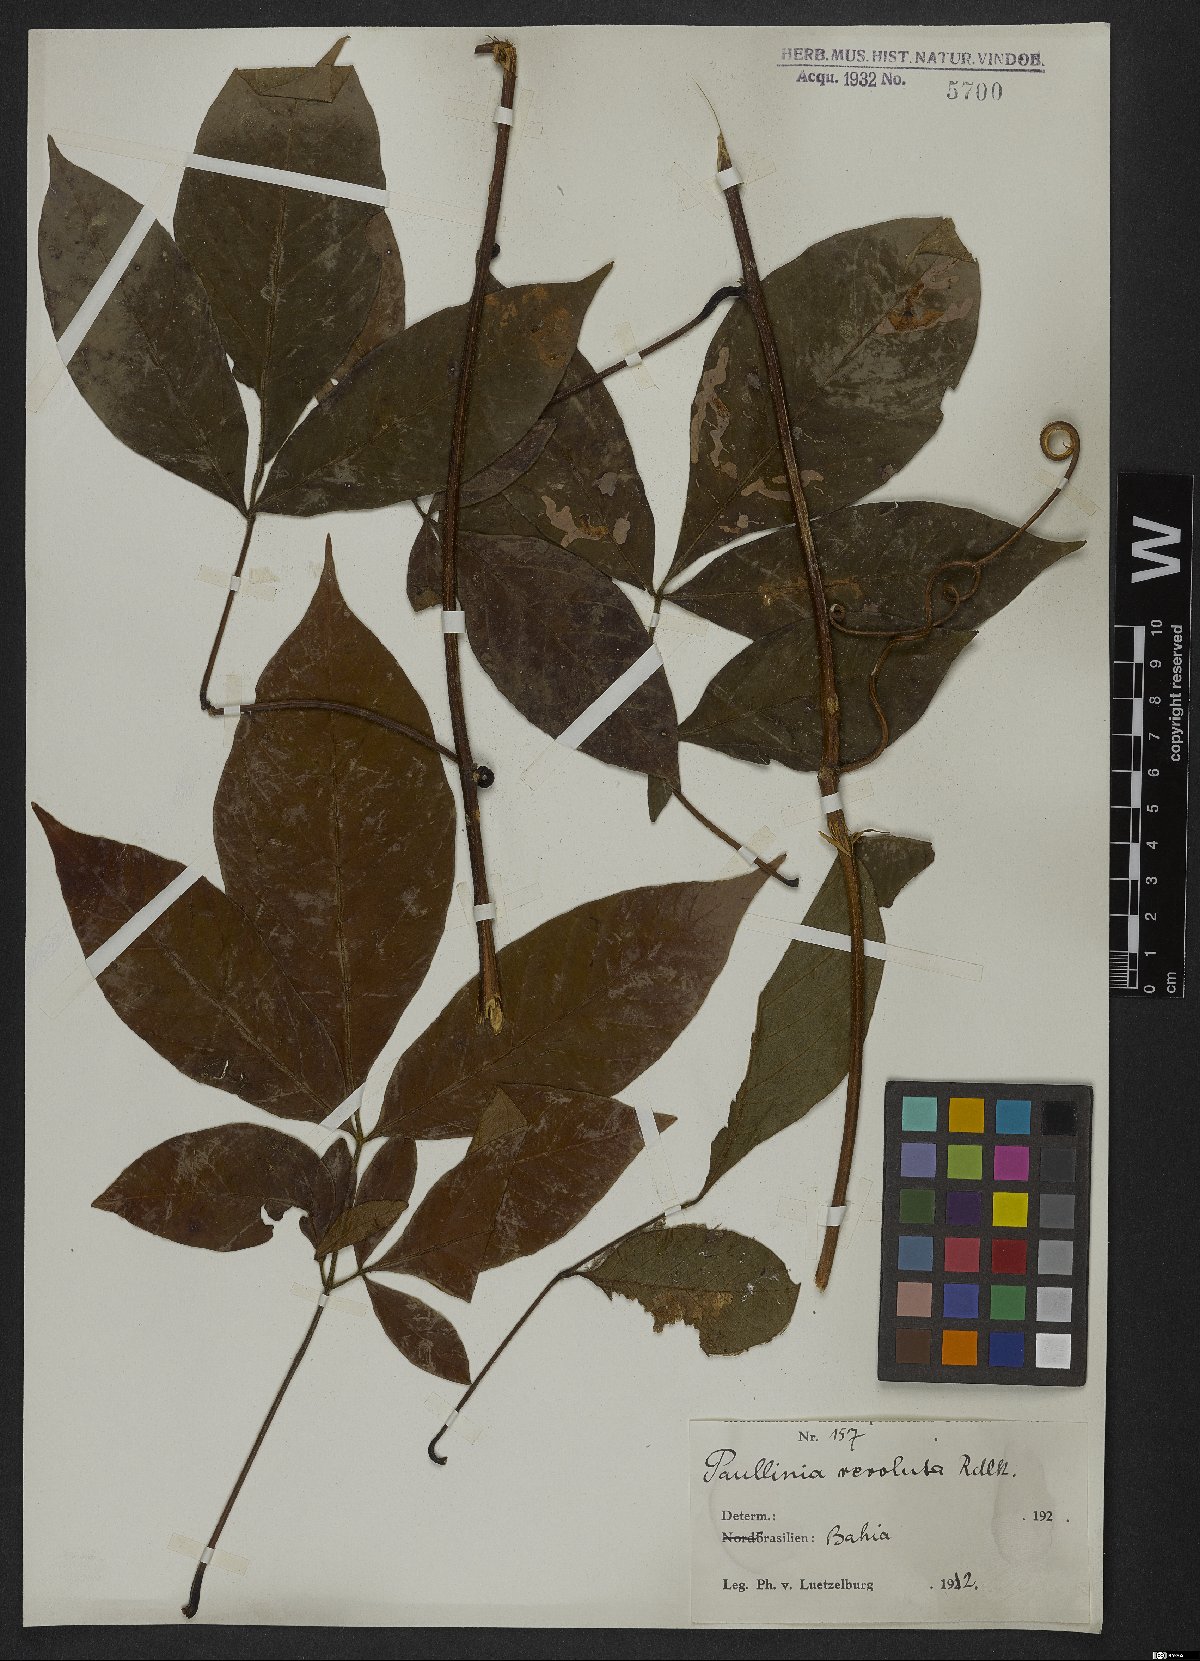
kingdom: Plantae
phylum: Tracheophyta
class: Magnoliopsida
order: Sapindales
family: Sapindaceae
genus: Paullinia
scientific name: Paullinia revoluta
